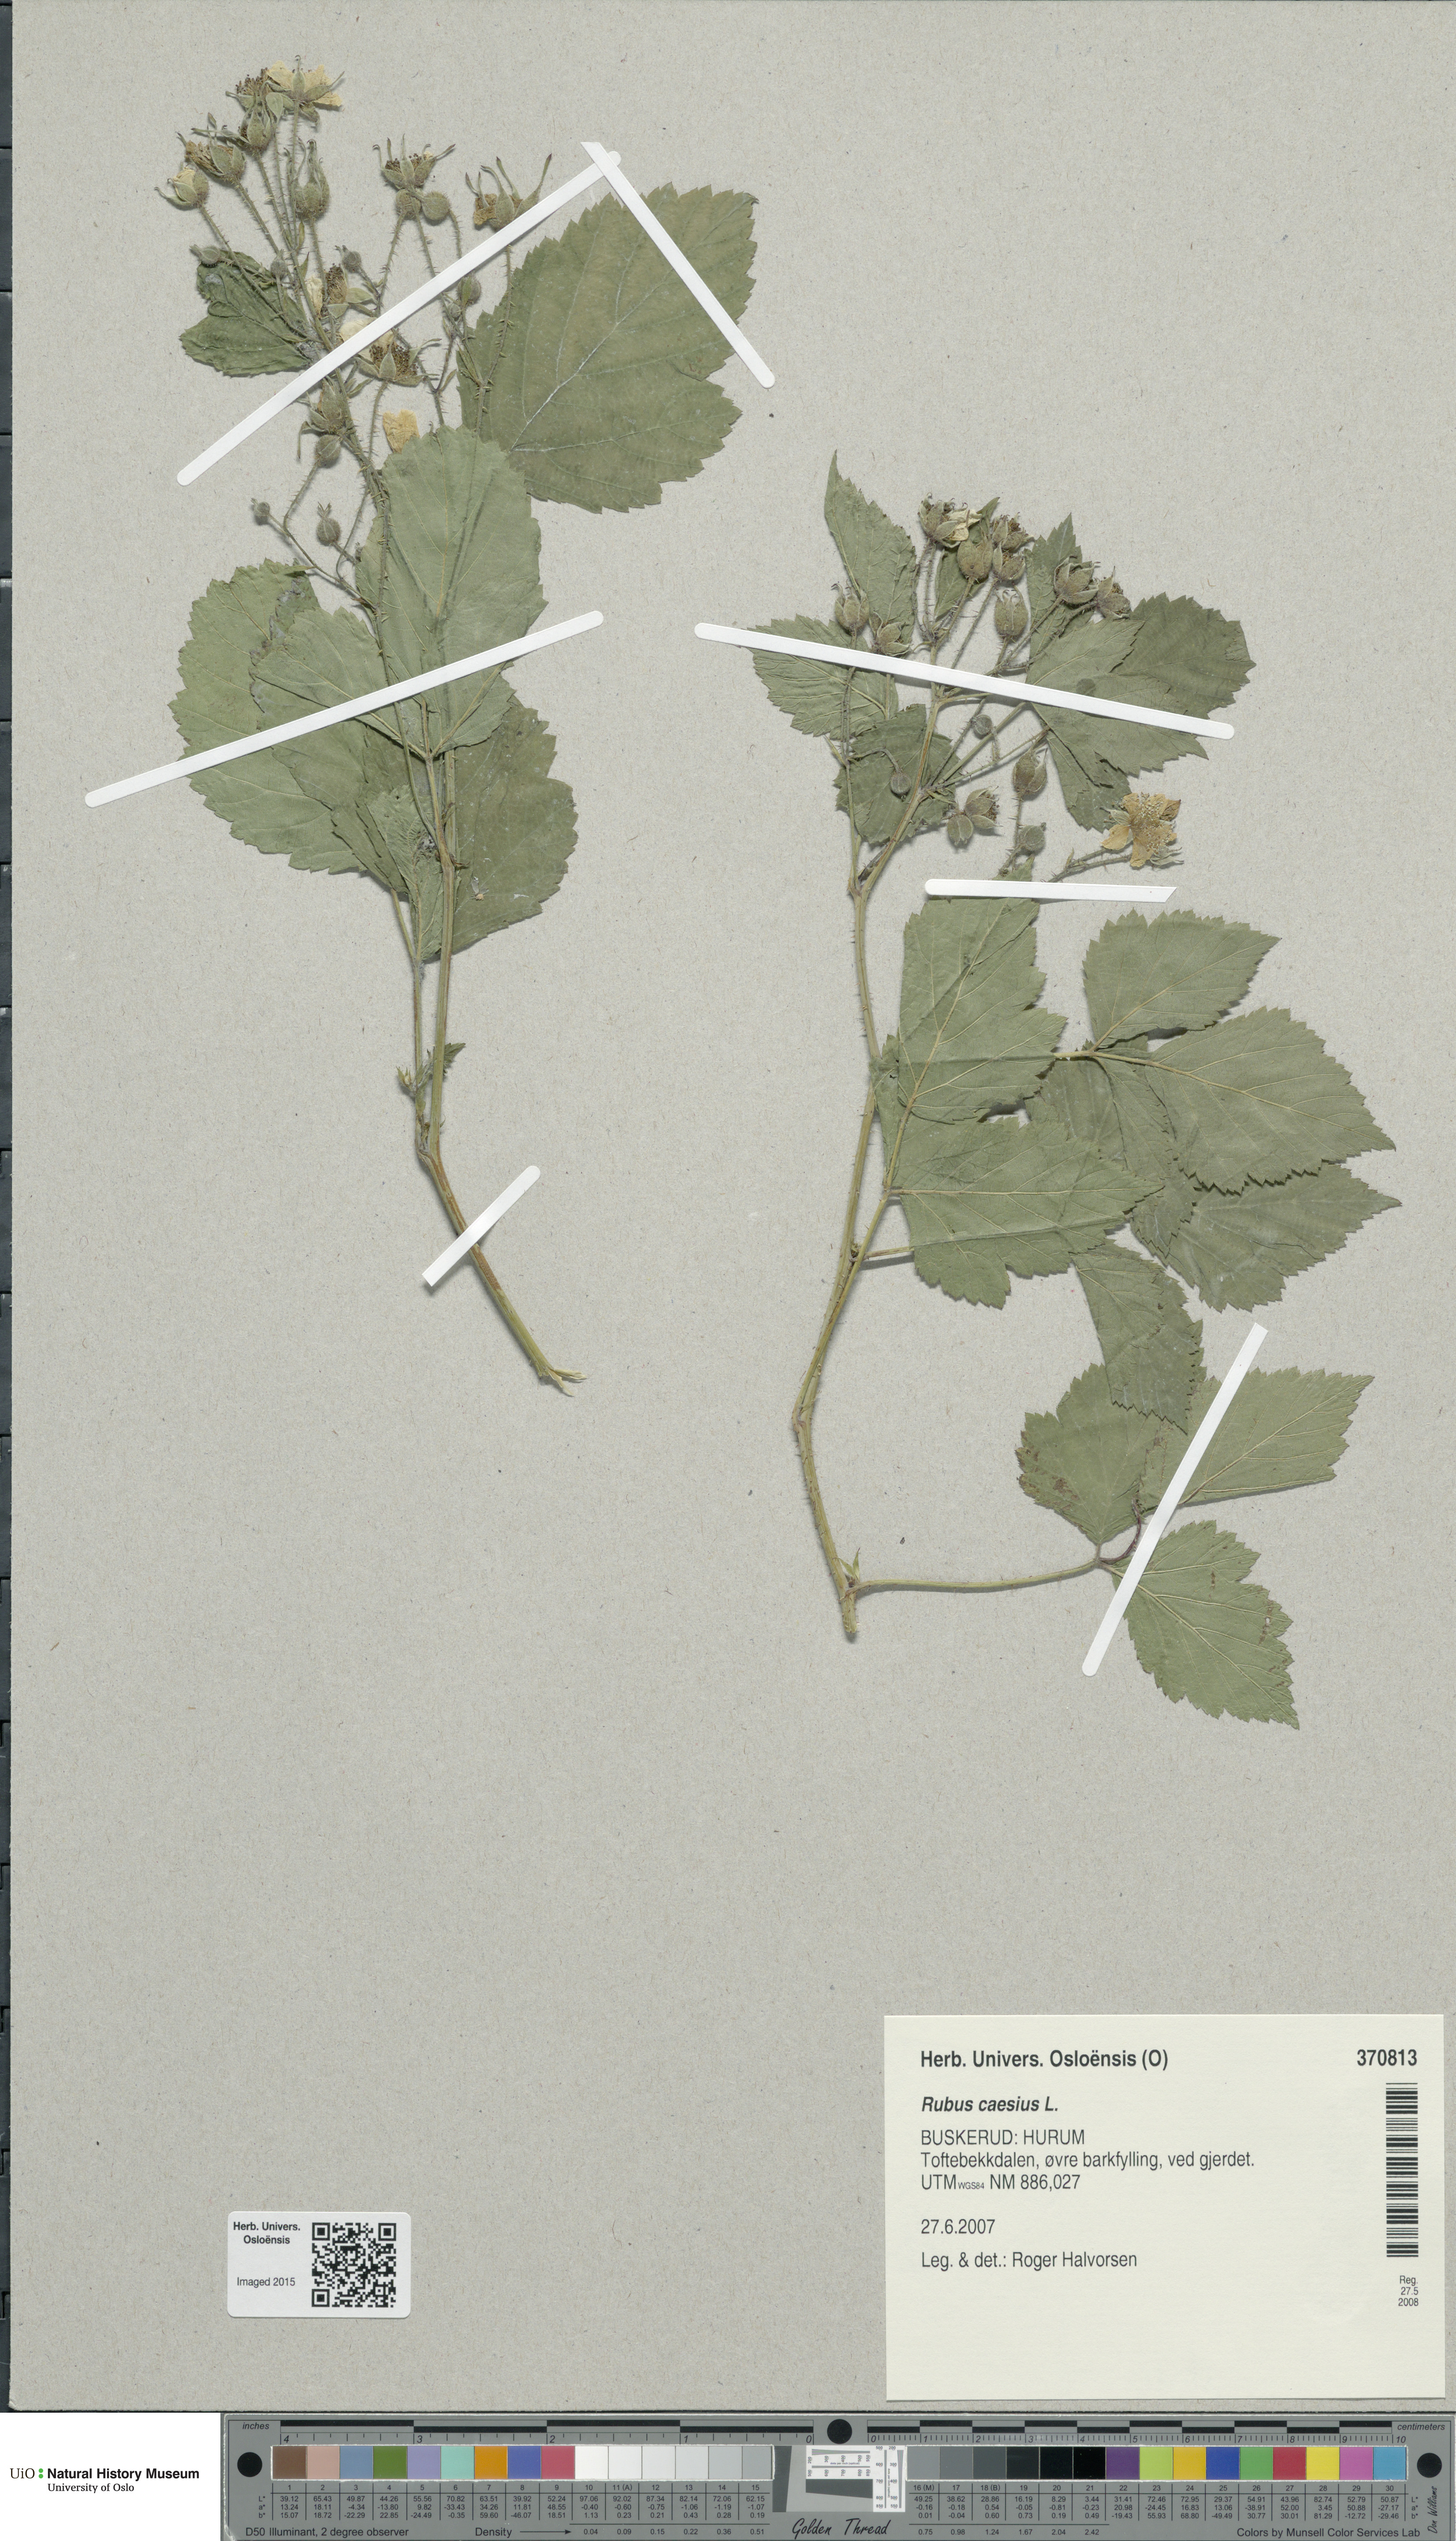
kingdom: Plantae
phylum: Tracheophyta
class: Magnoliopsida
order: Rosales
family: Rosaceae
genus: Rubus
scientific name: Rubus caesius
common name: Dewberry
